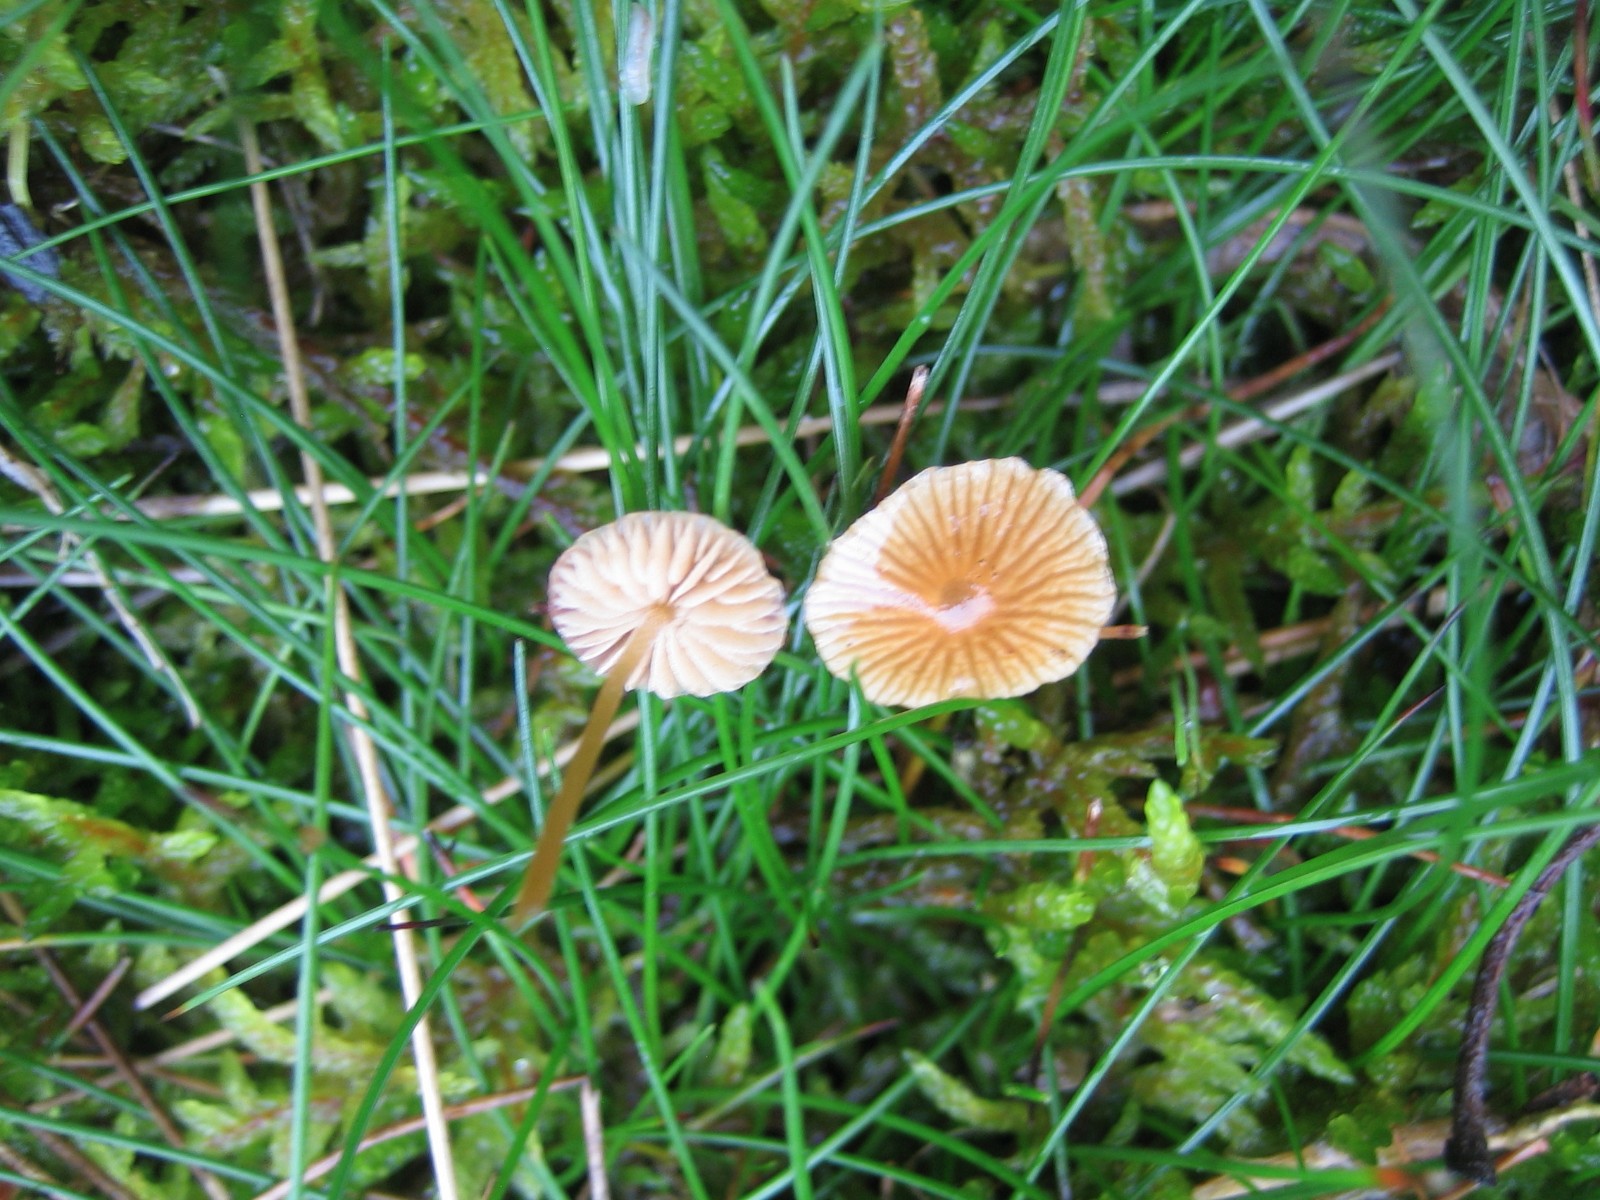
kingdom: Fungi
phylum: Basidiomycota
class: Agaricomycetes
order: Agaricales
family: Hymenogastraceae
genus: Galerina
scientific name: Galerina
